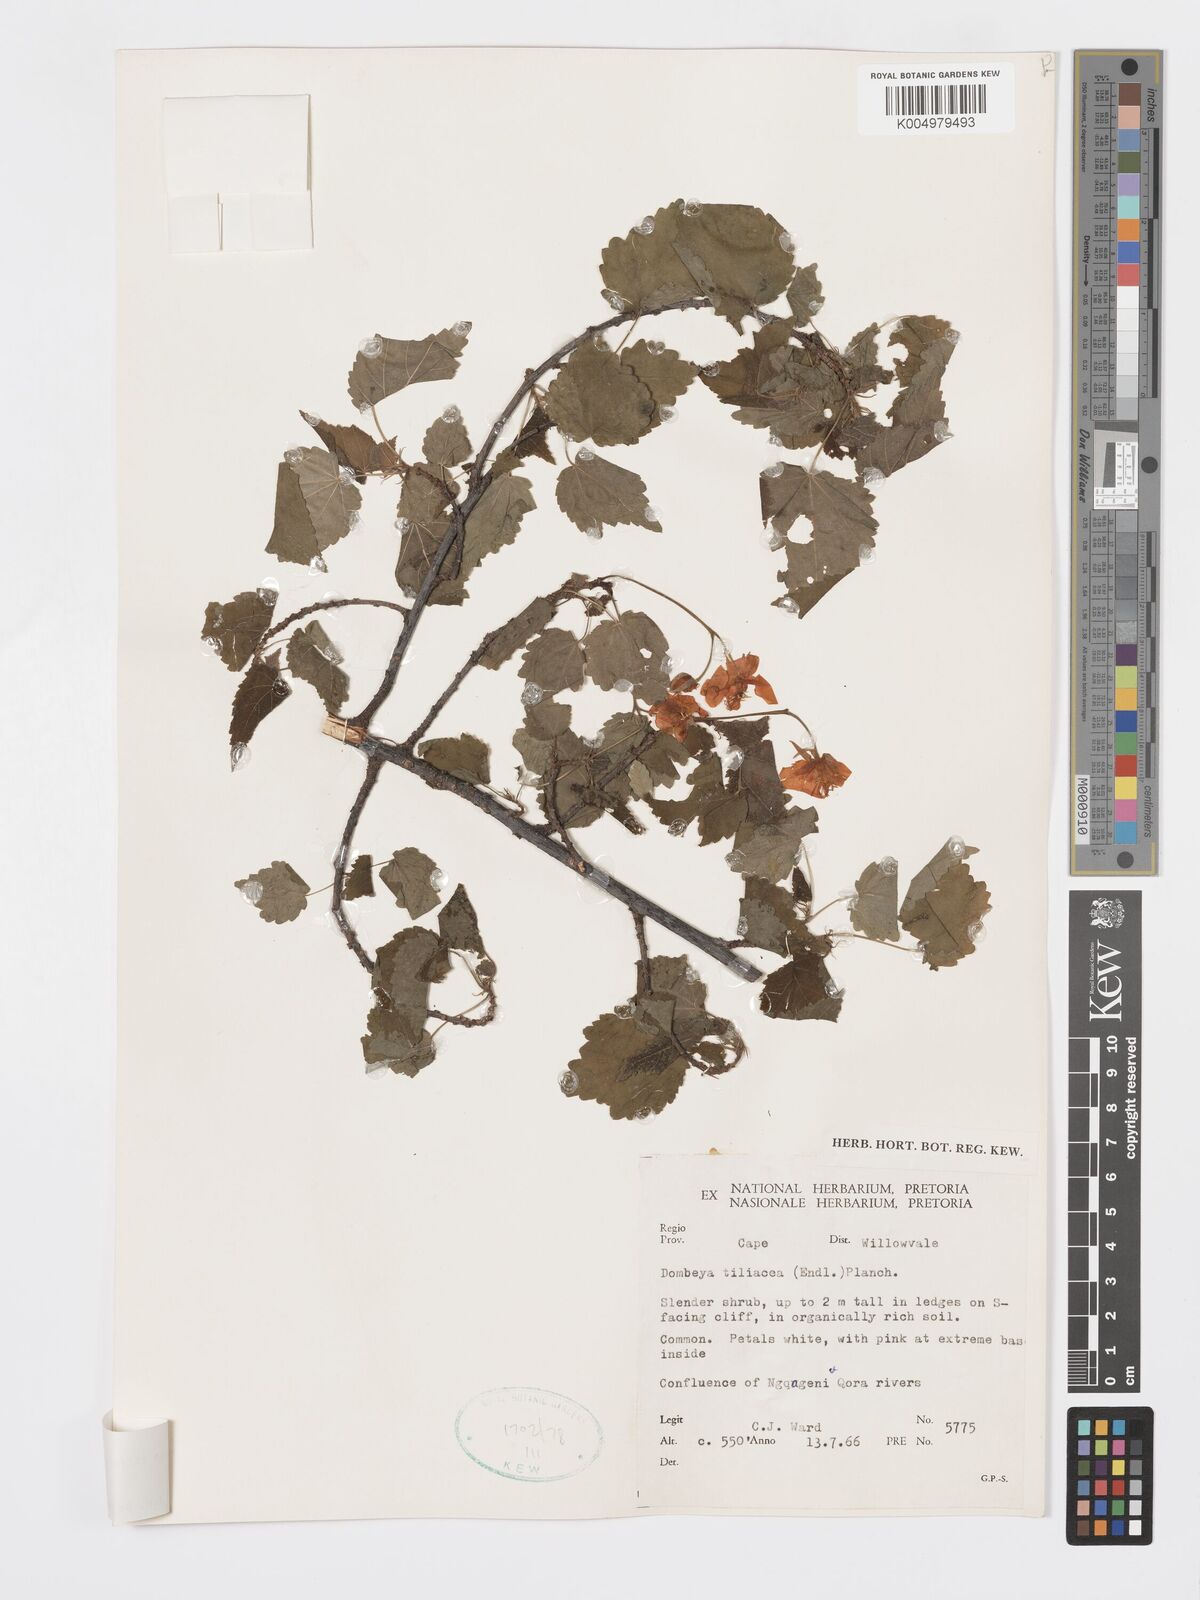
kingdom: Plantae
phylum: Tracheophyta
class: Magnoliopsida
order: Malvales
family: Malvaceae
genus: Dombeya
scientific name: Dombeya tiliacea
